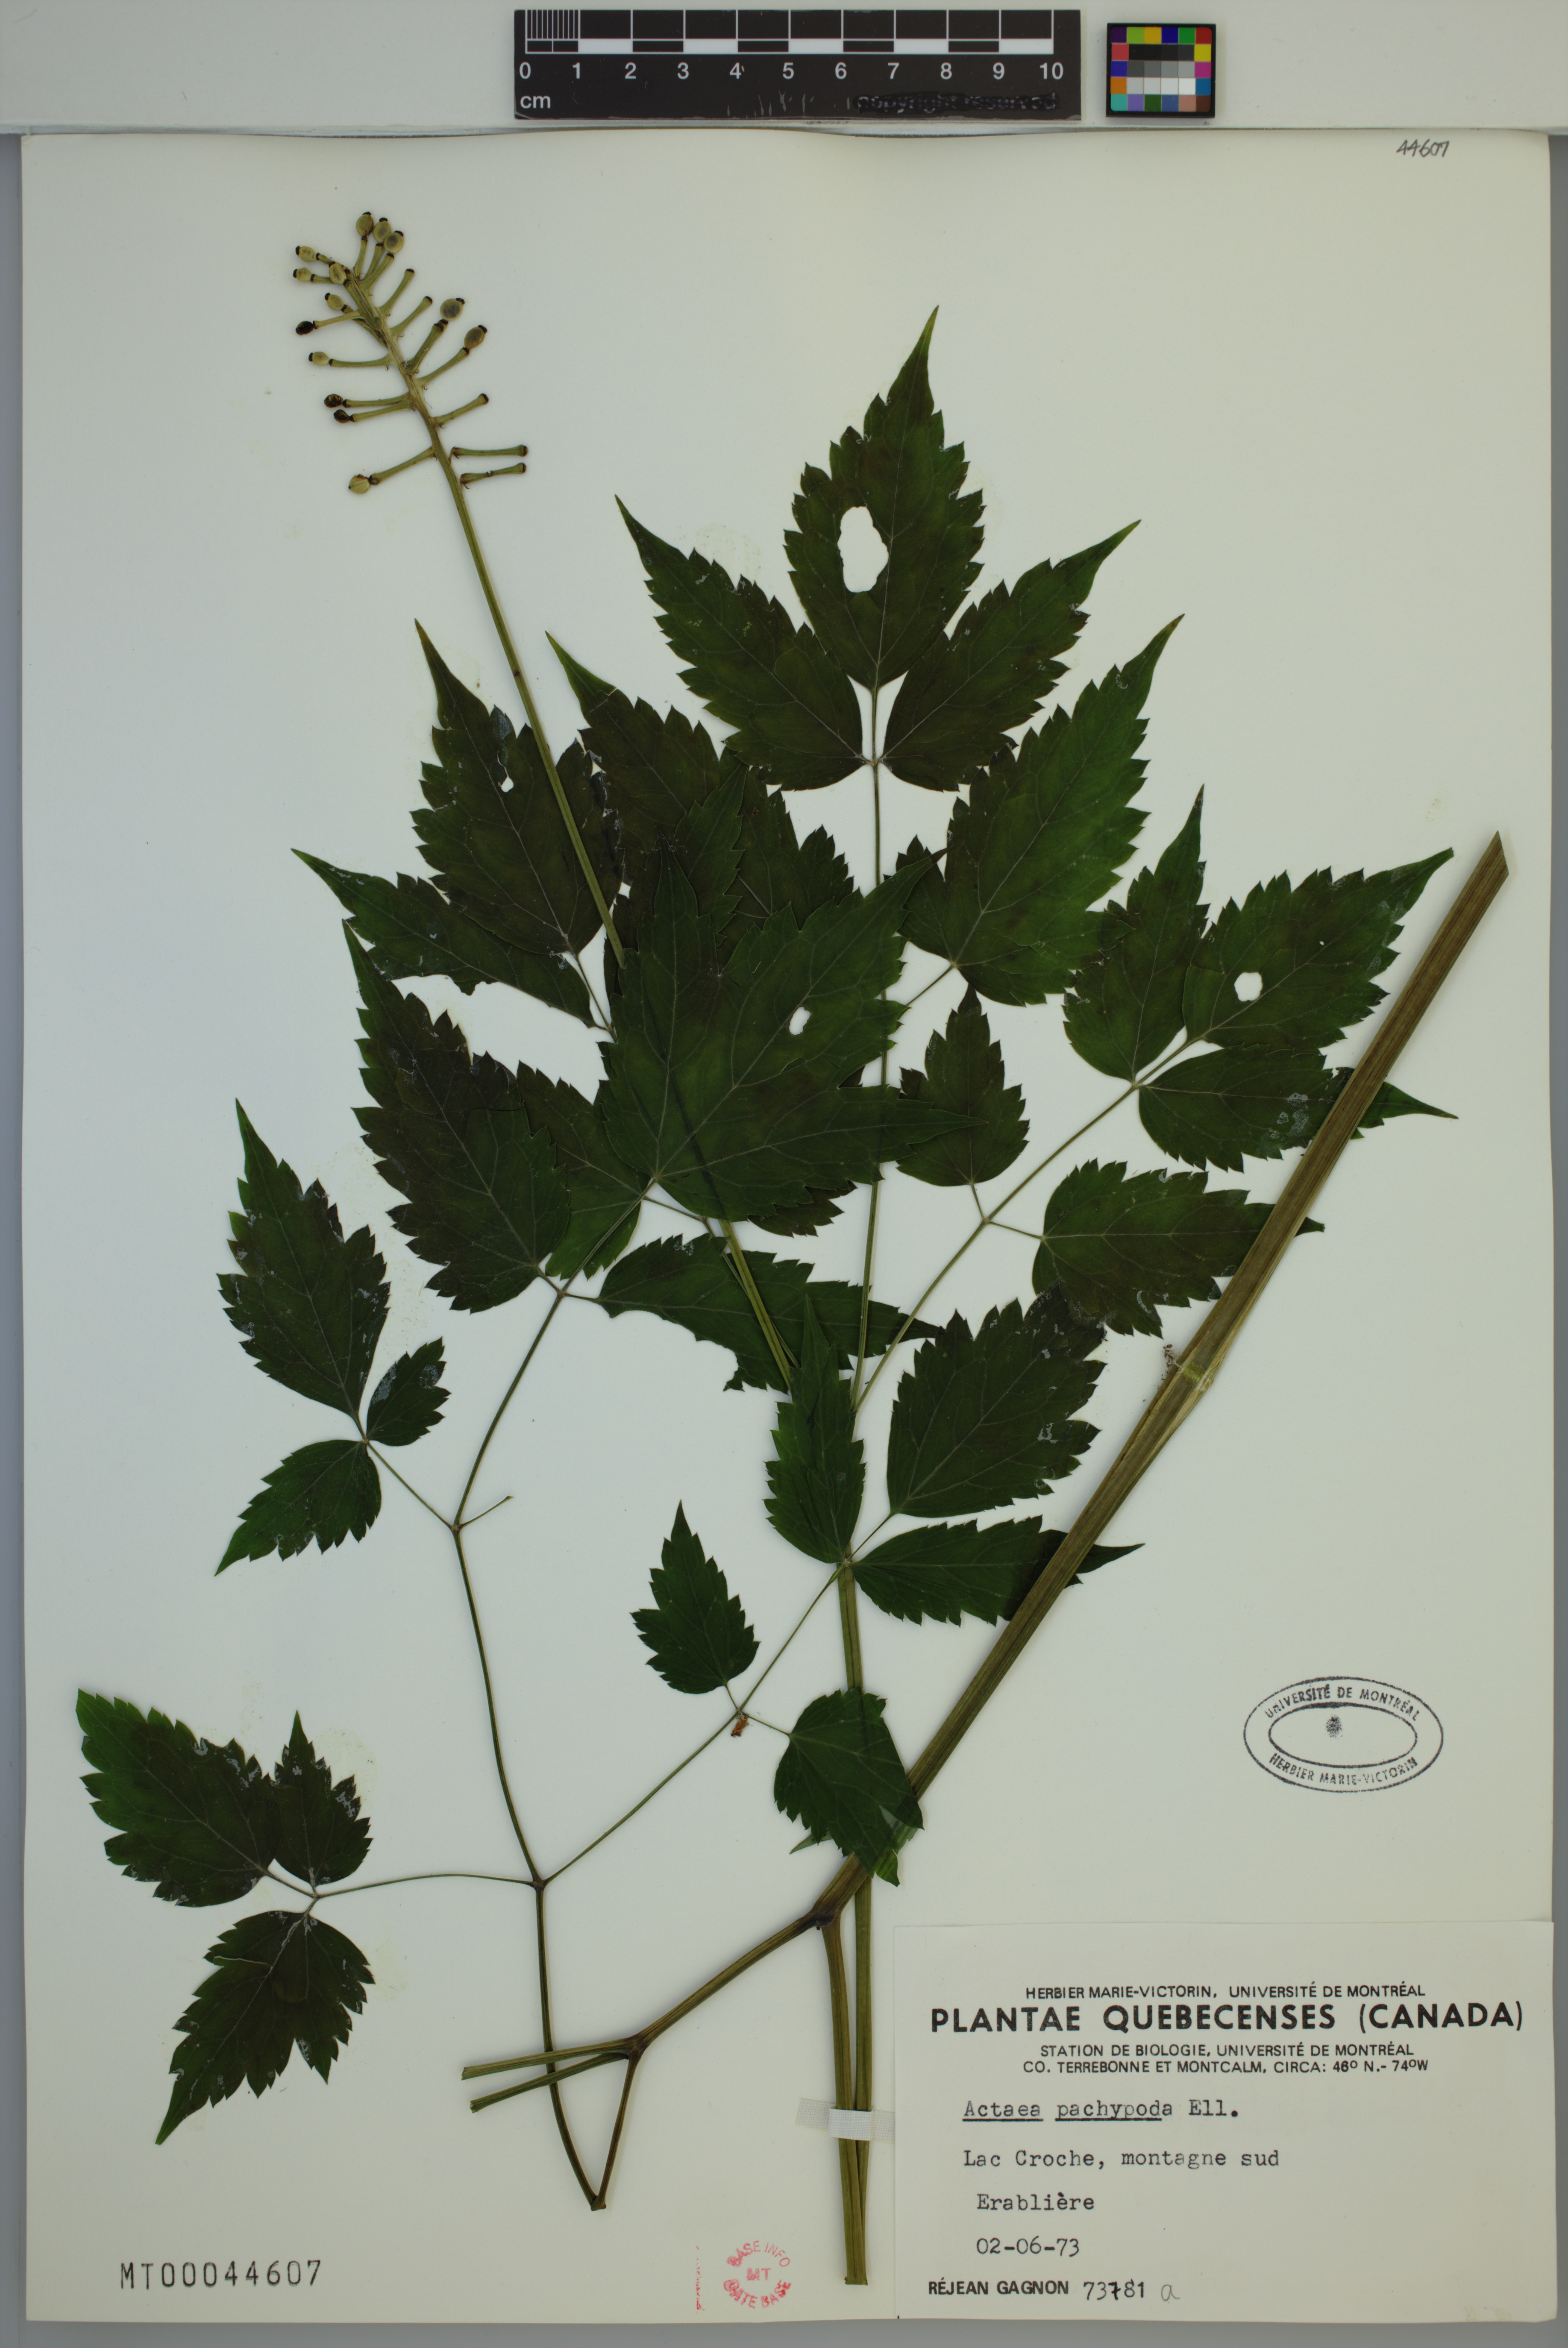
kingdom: Plantae
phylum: Tracheophyta
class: Magnoliopsida
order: Ranunculales
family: Ranunculaceae
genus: Actaea
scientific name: Actaea pachypoda
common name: Doll's-eyes
